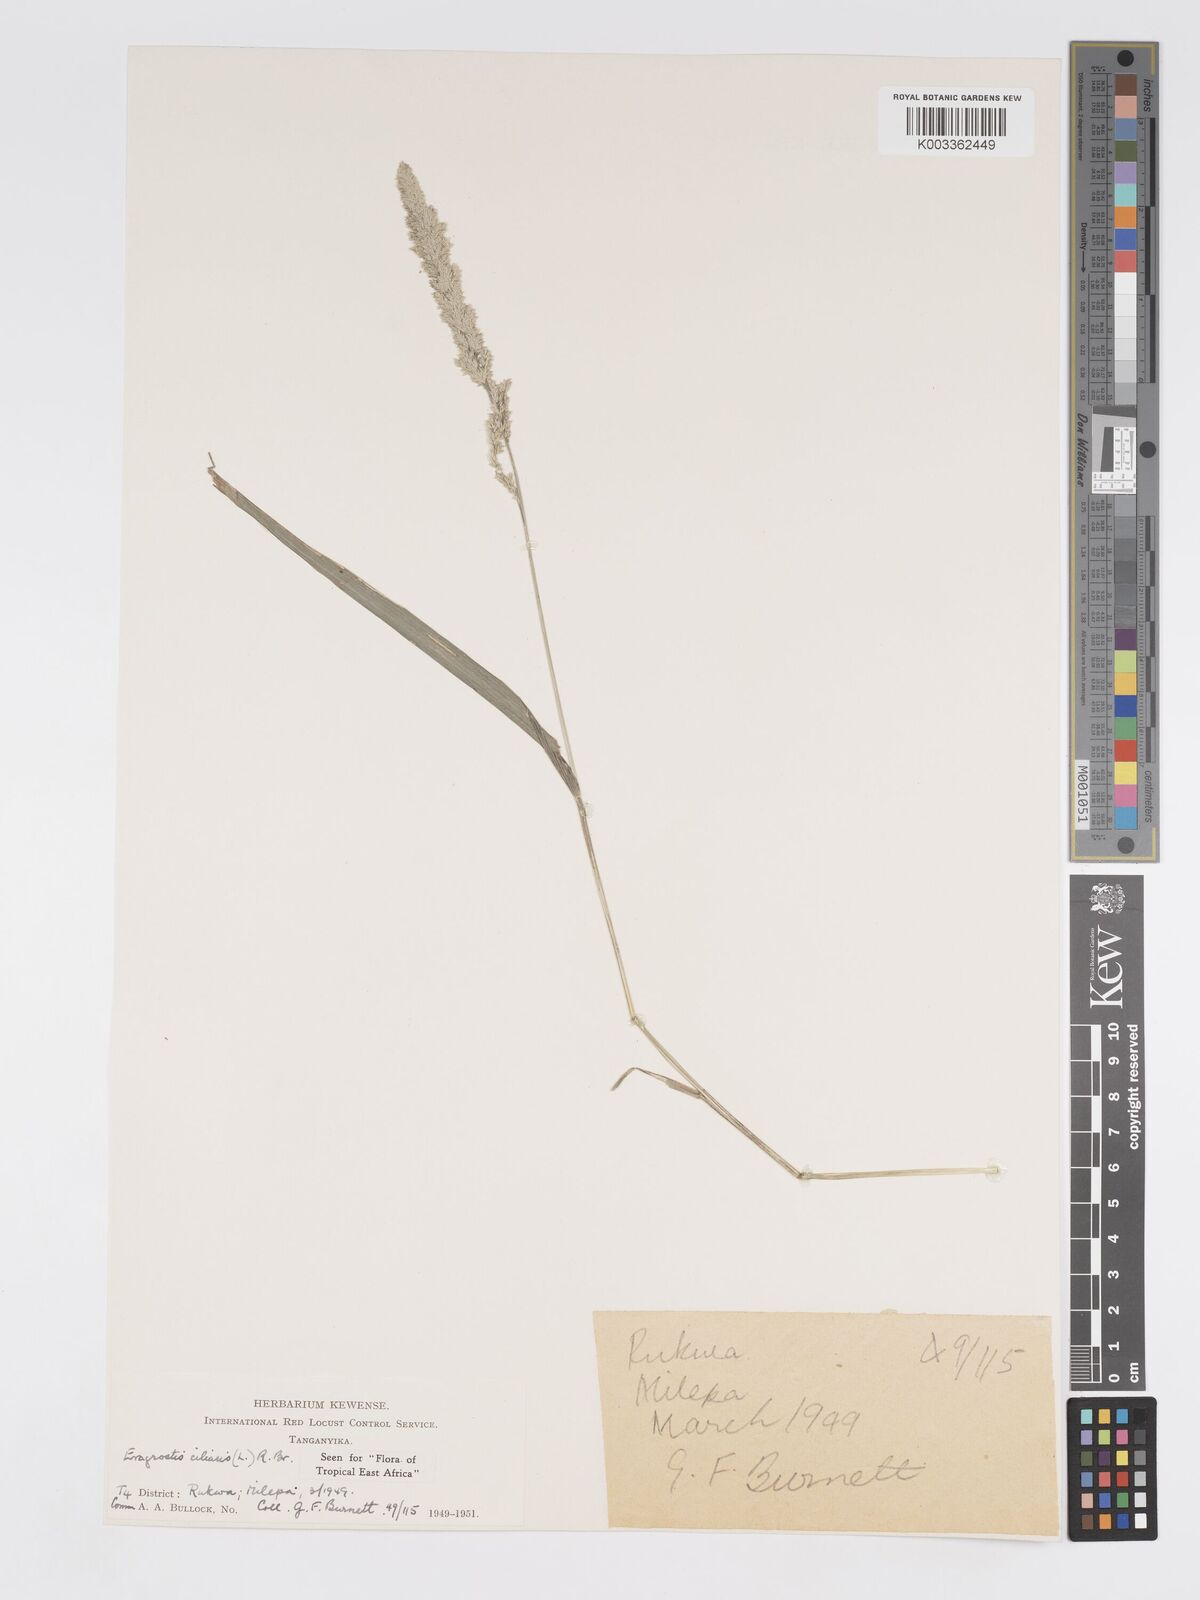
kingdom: Plantae
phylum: Tracheophyta
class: Liliopsida
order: Poales
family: Poaceae
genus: Eragrostis
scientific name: Eragrostis ciliaris
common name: Gophertail lovegrass
